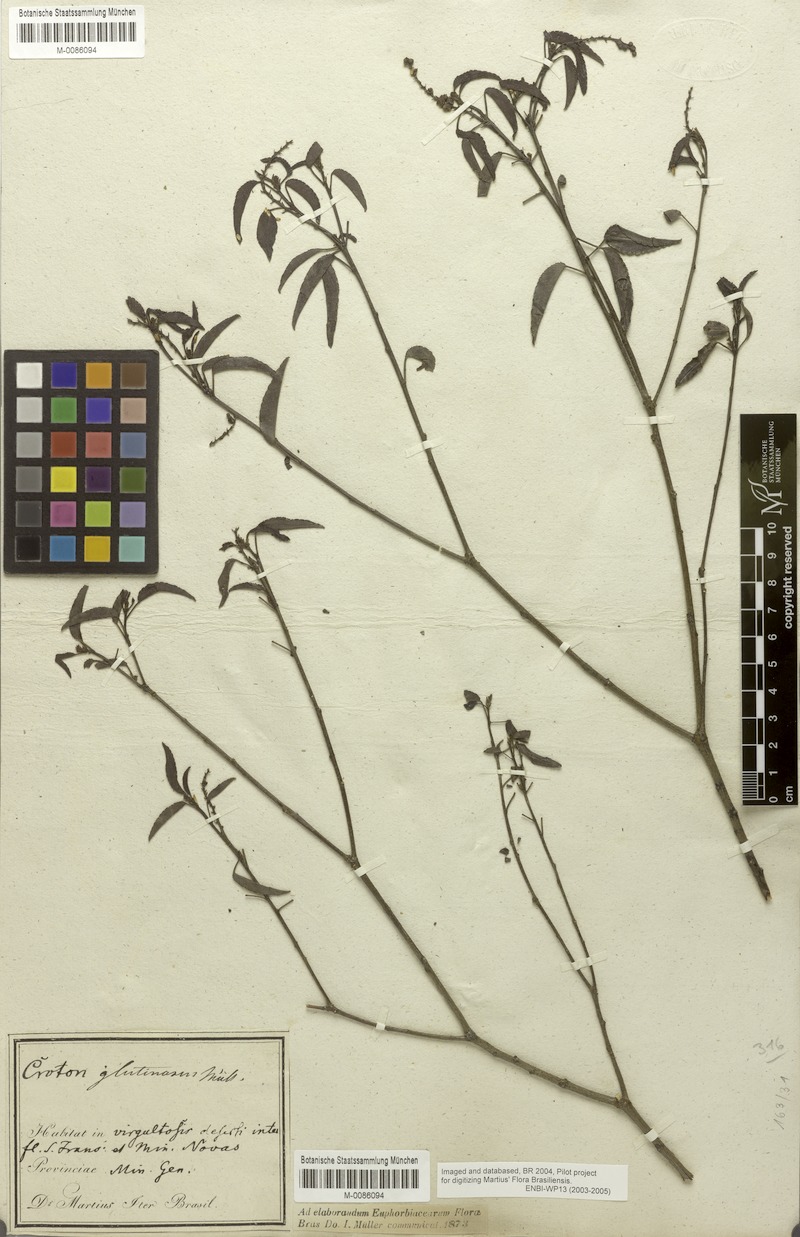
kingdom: Plantae
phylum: Tracheophyta
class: Magnoliopsida
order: Malpighiales
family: Euphorbiaceae
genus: Croton
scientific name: Croton glutinosus
